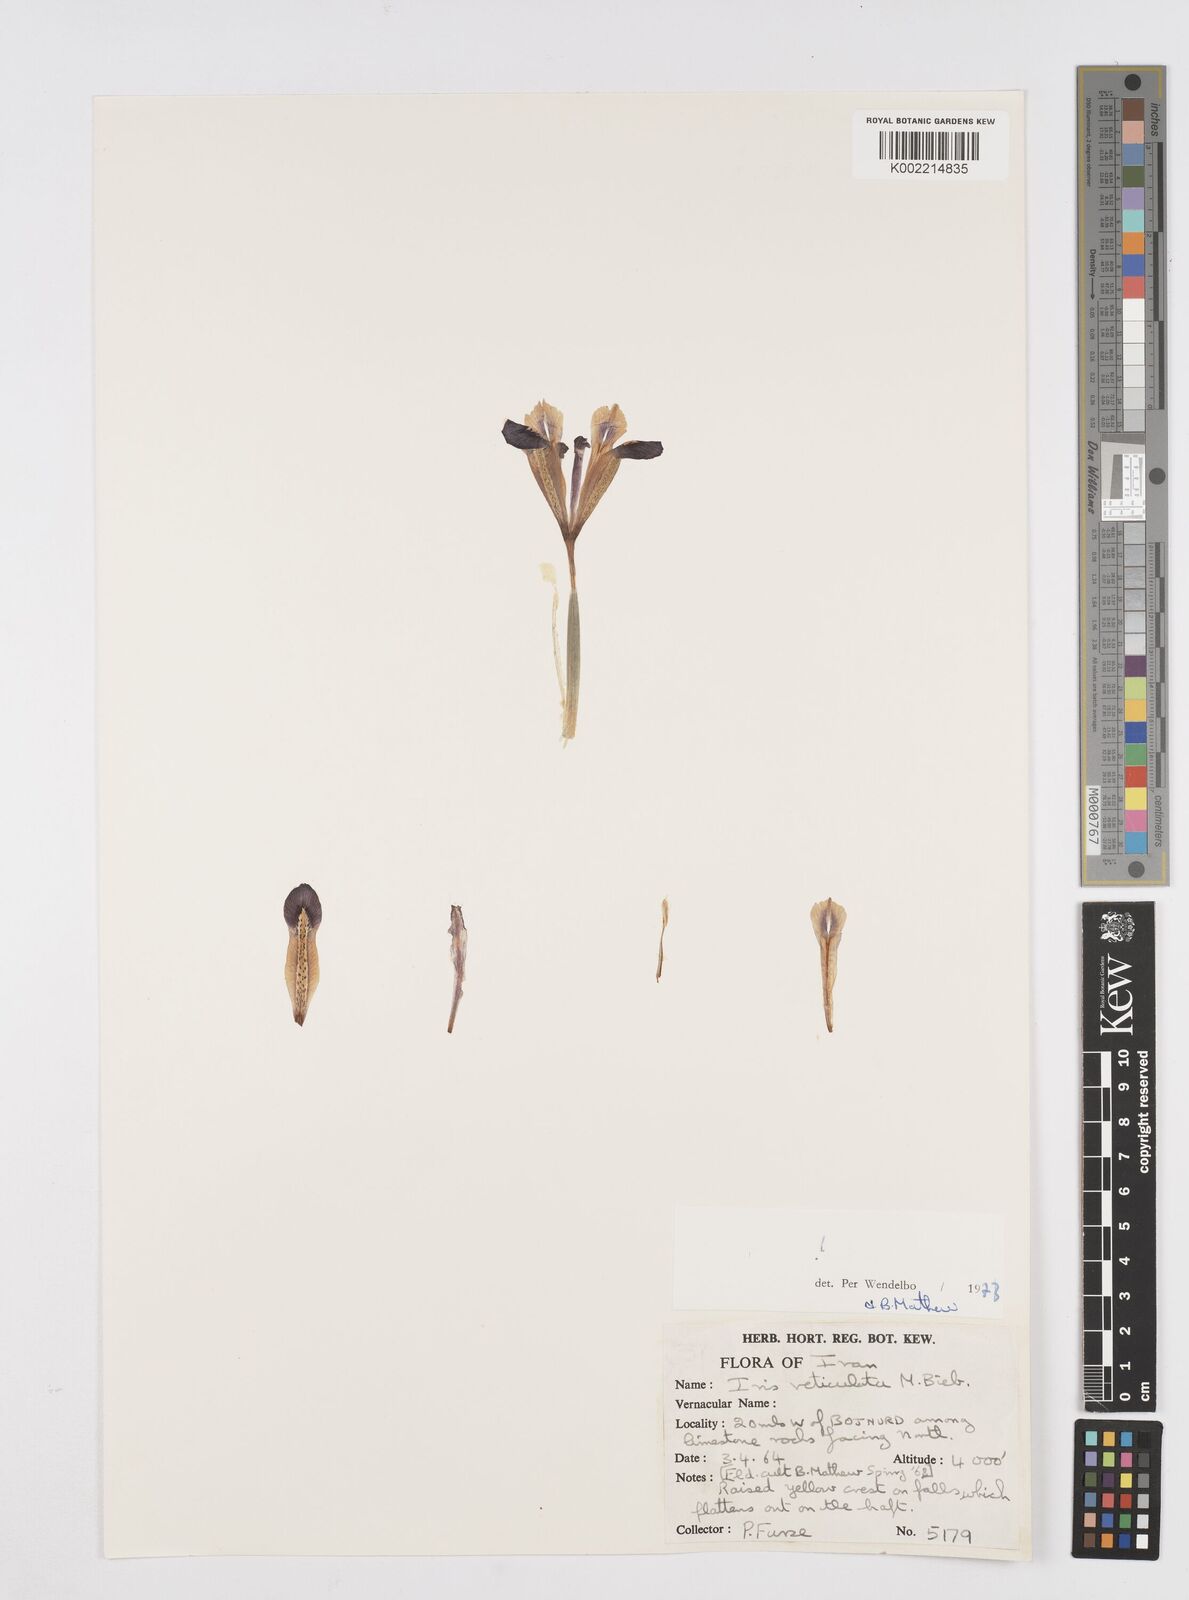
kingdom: Plantae
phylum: Tracheophyta
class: Liliopsida
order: Asparagales
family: Iridaceae
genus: Iris
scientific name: Iris reticulata
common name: Netted iris
